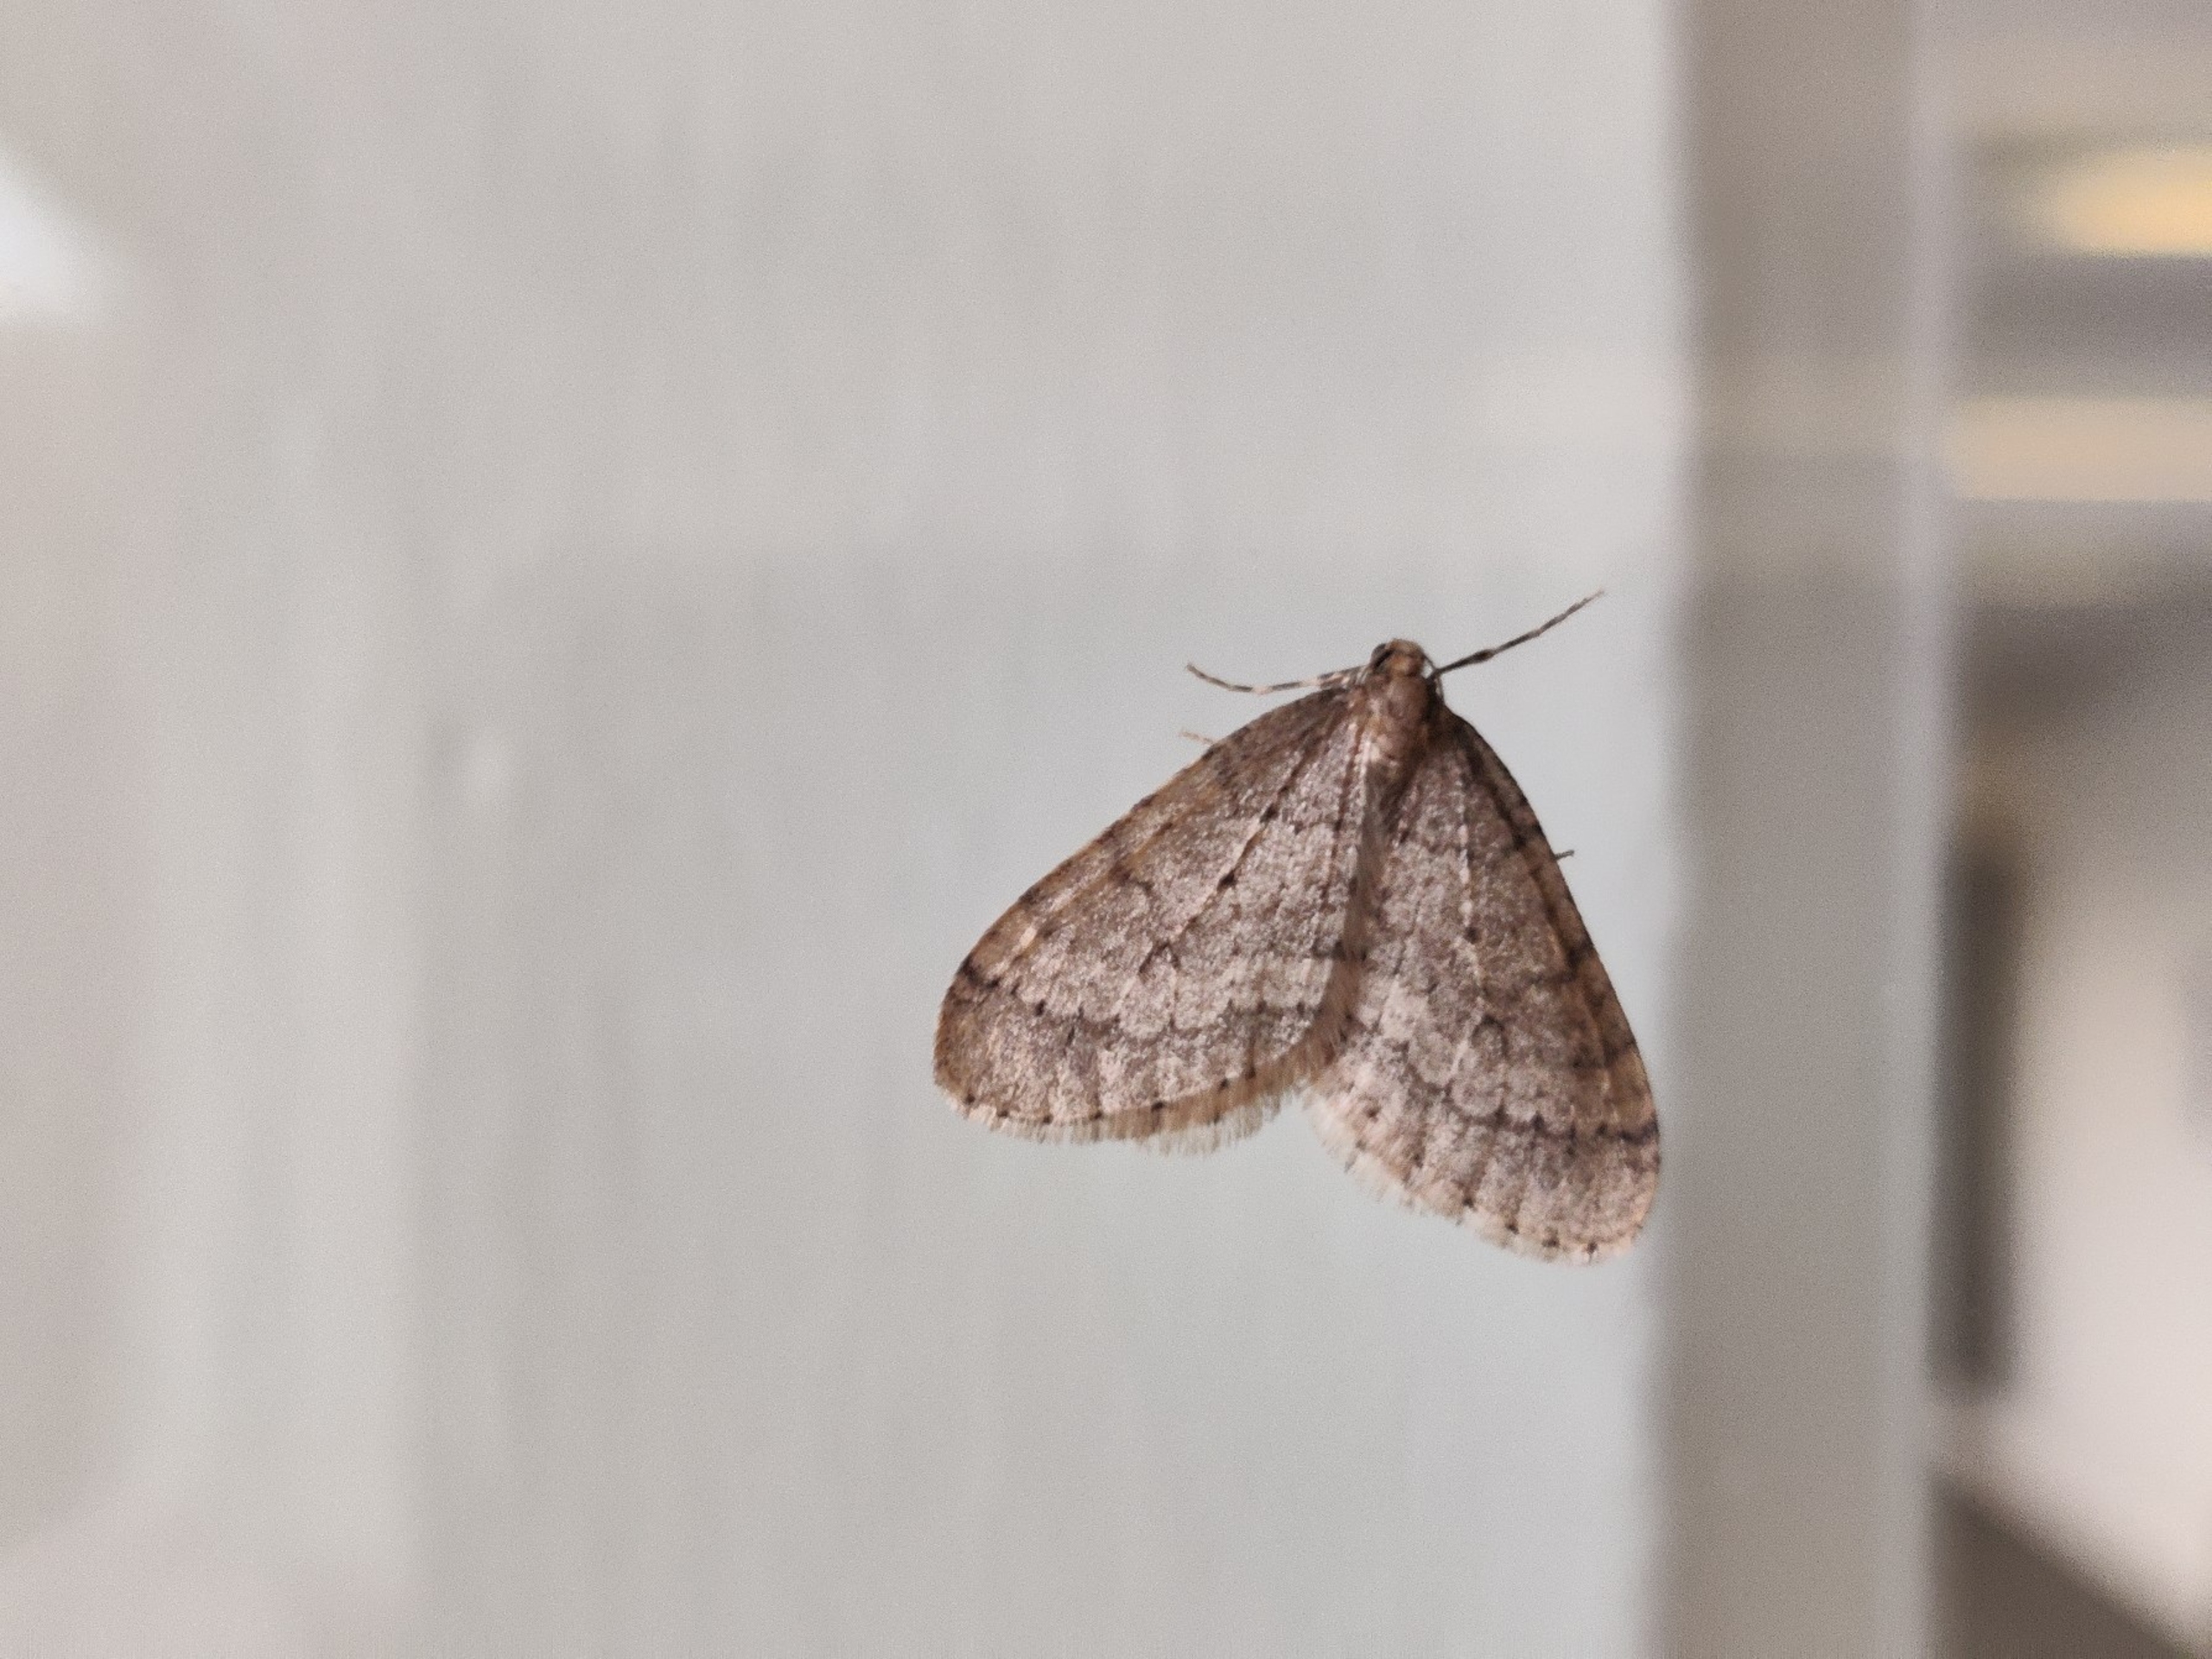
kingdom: Animalia
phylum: Arthropoda
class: Insecta
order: Lepidoptera
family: Geometridae
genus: Operophtera
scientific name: Operophtera brumata
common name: Lille frostmåler
